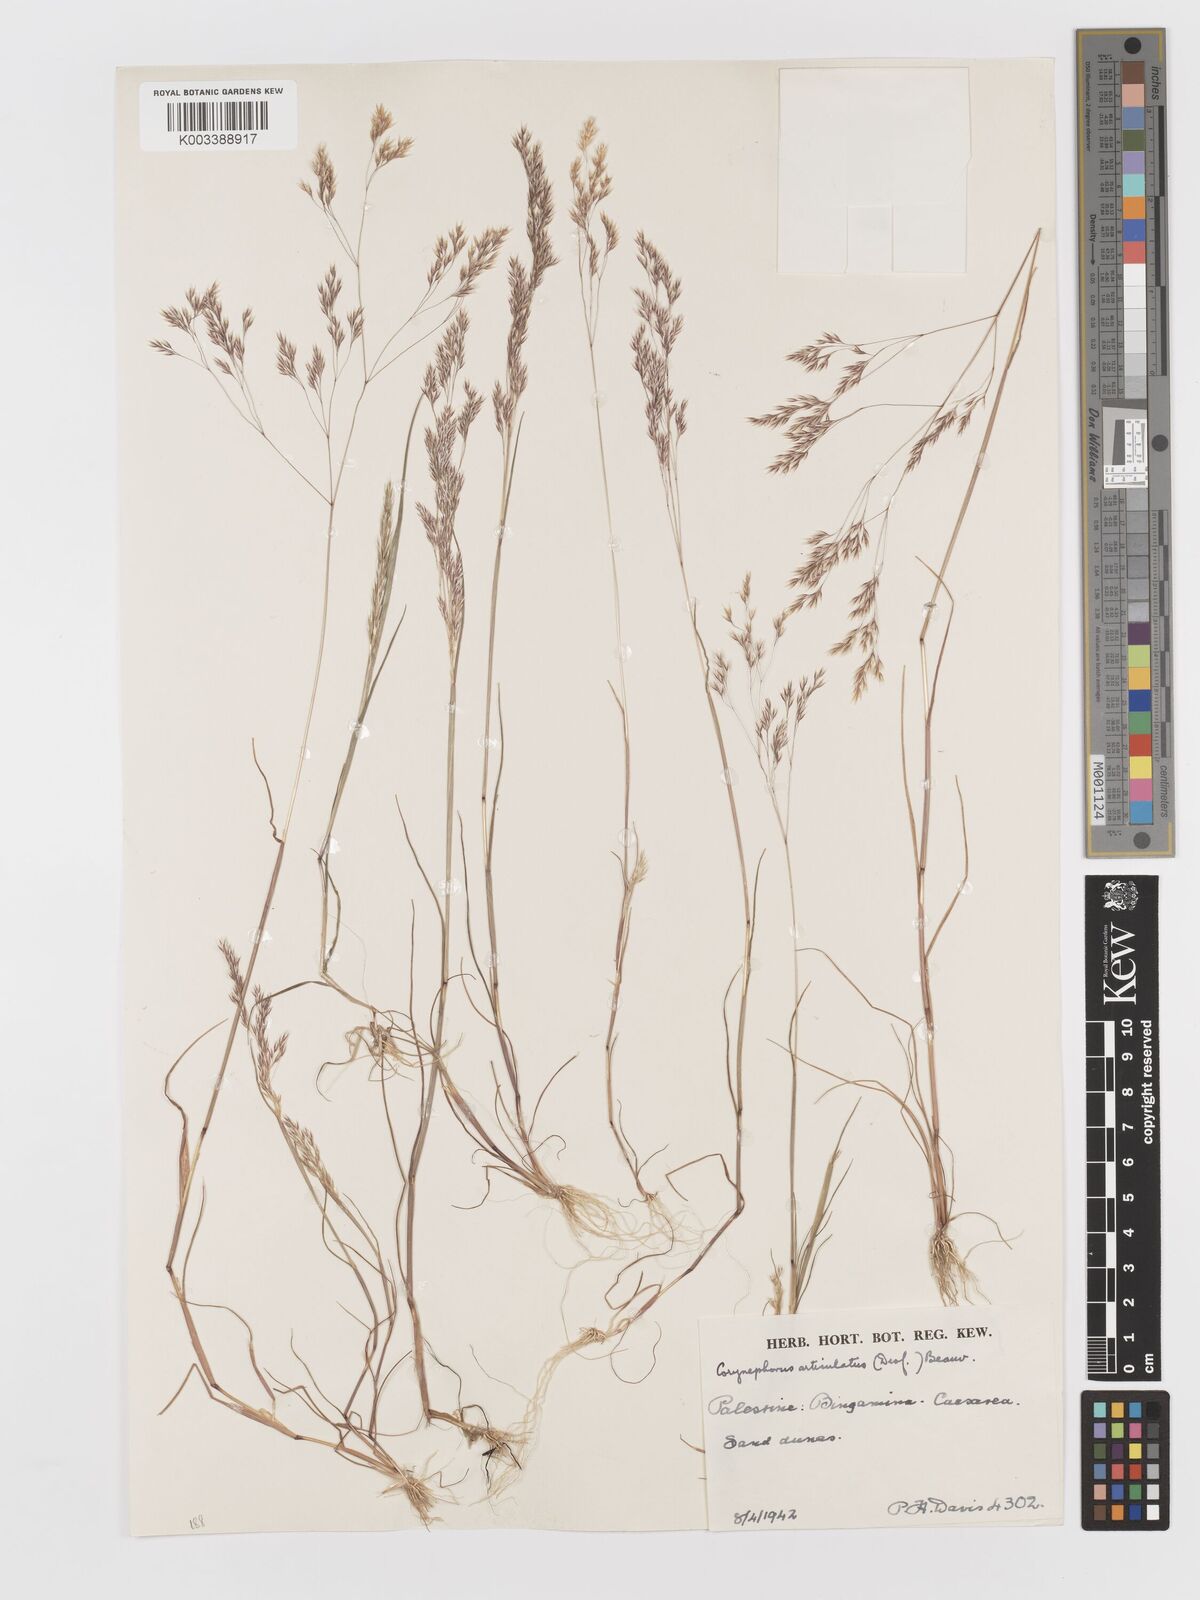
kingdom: Plantae
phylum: Tracheophyta
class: Liliopsida
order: Poales
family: Poaceae
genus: Corynephorus
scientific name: Corynephorus divaricatus
